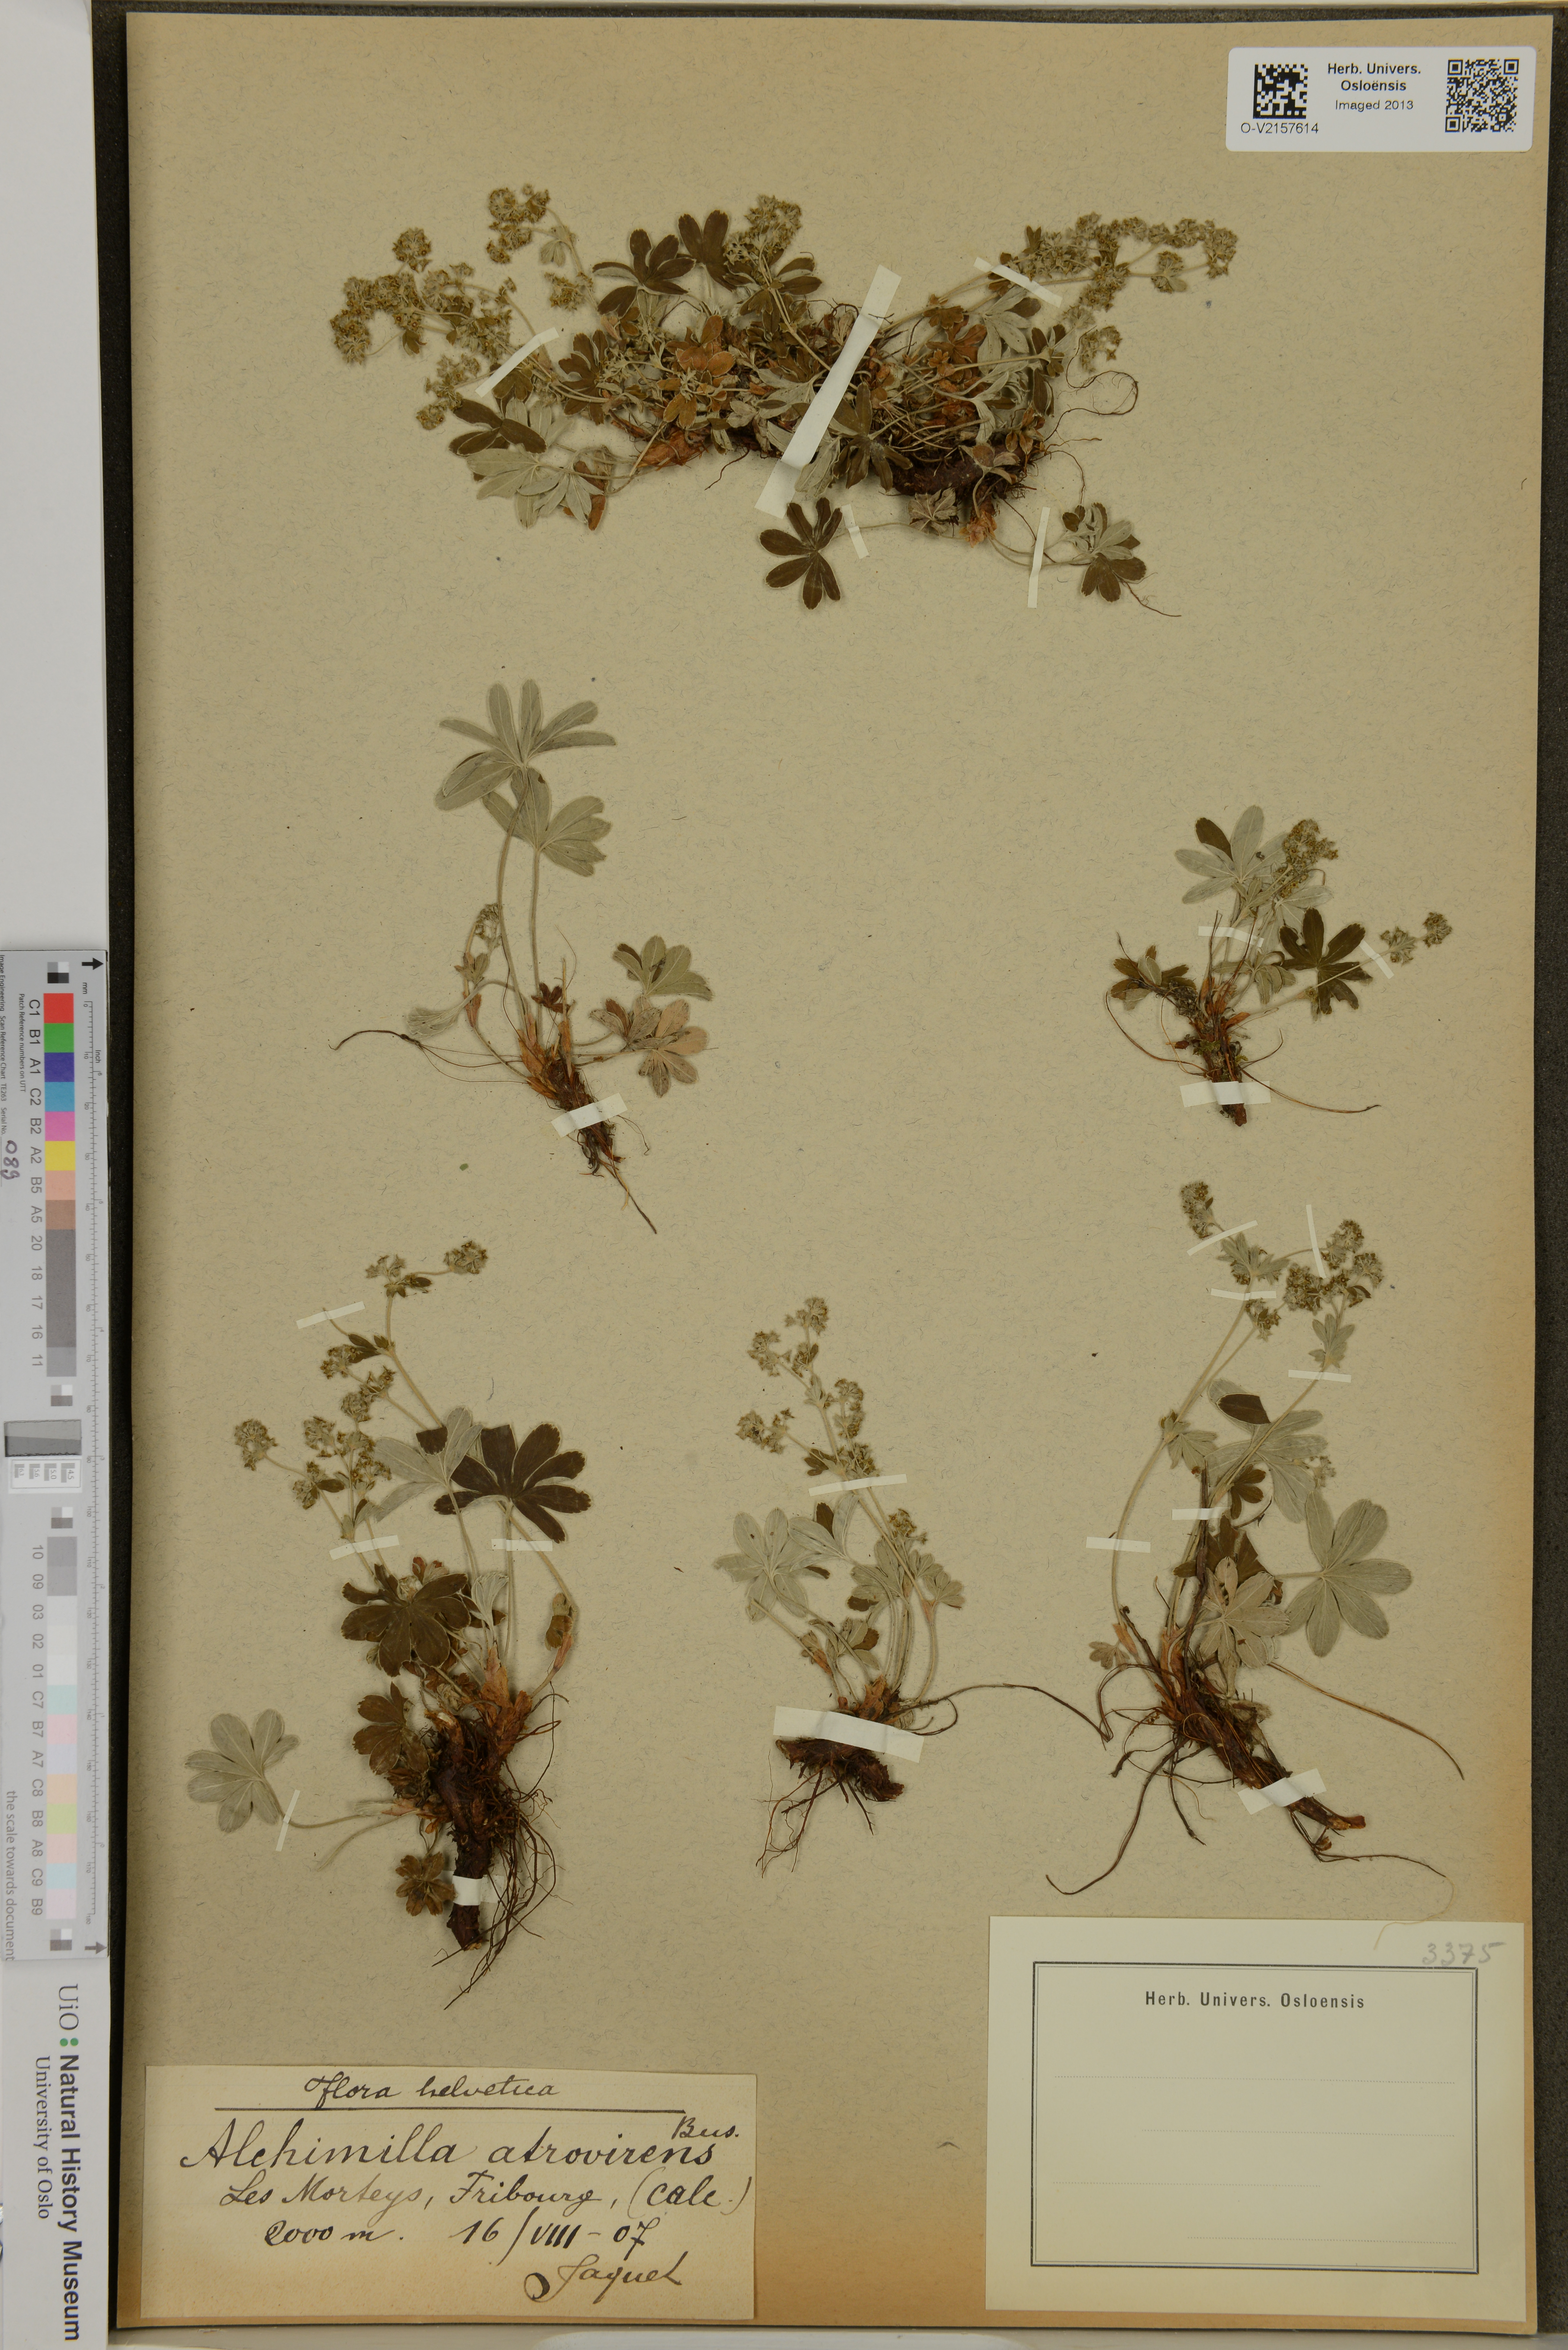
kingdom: Plantae
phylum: Tracheophyta
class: Magnoliopsida
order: Rosales
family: Rosaceae
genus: Alchemilla
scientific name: Alchemilla atrovirens
